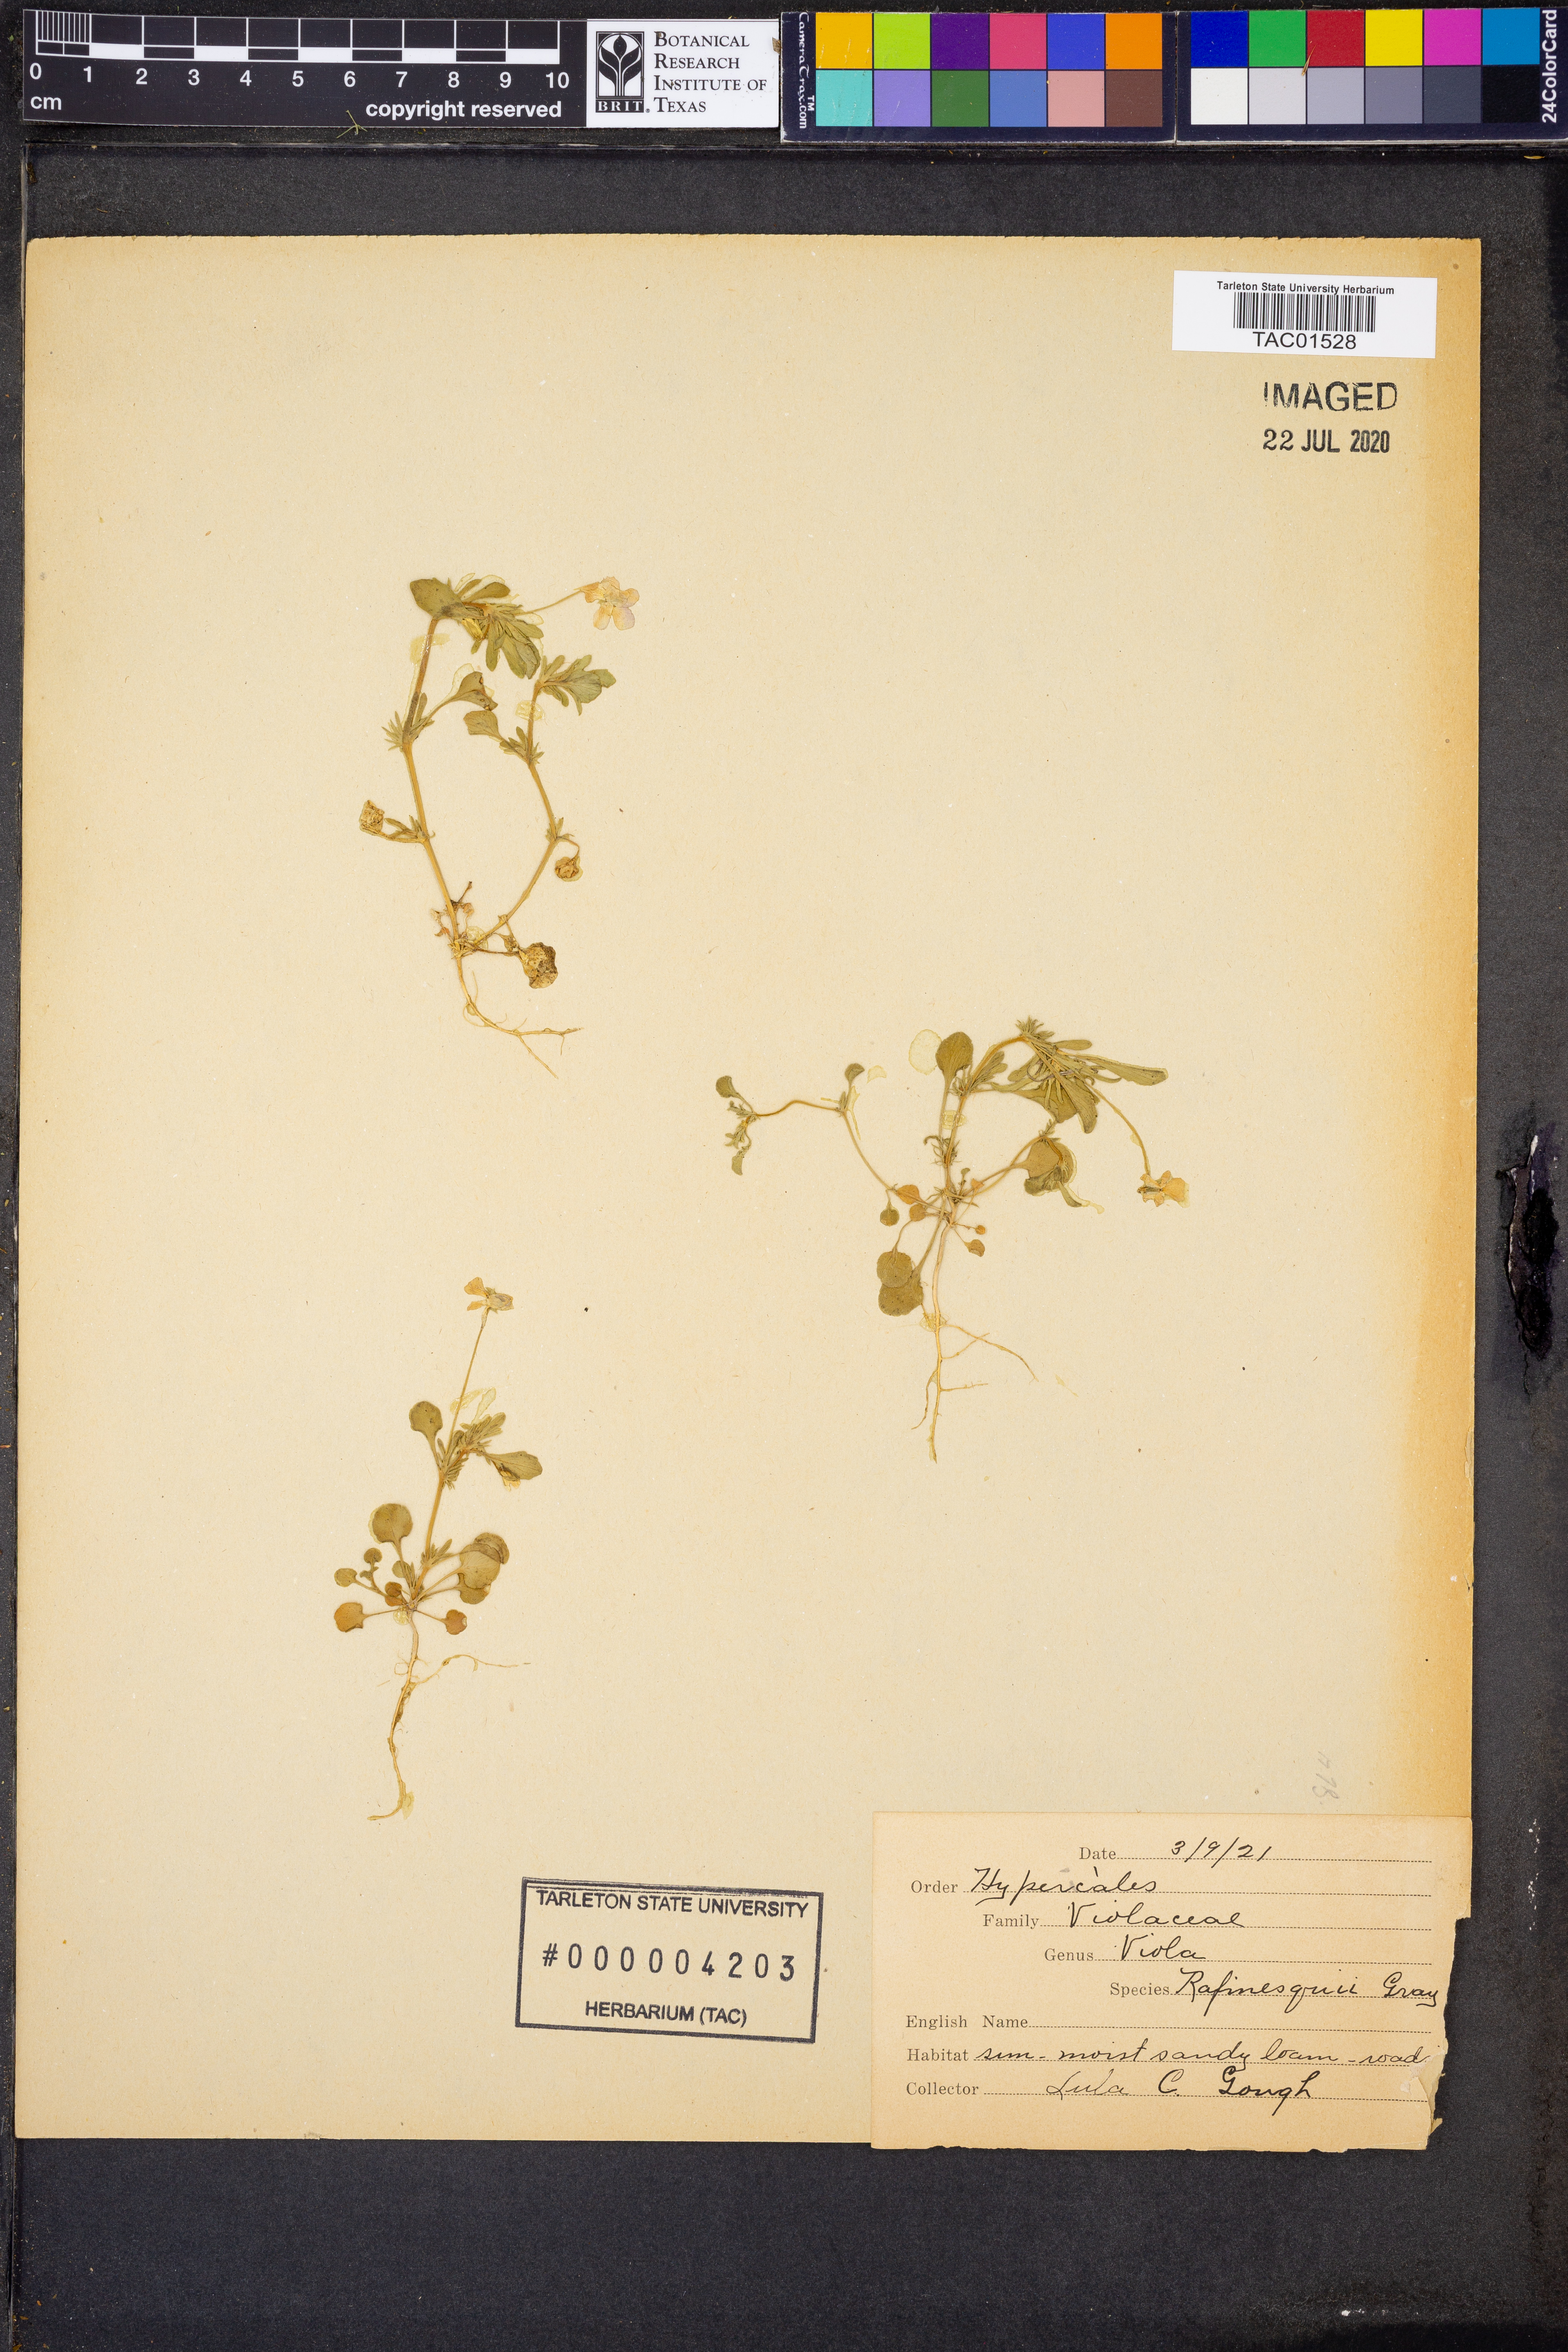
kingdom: Plantae
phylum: Tracheophyta
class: Magnoliopsida
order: Malpighiales
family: Violaceae
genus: Viola
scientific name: Viola rafinesquei
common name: American field pansy
